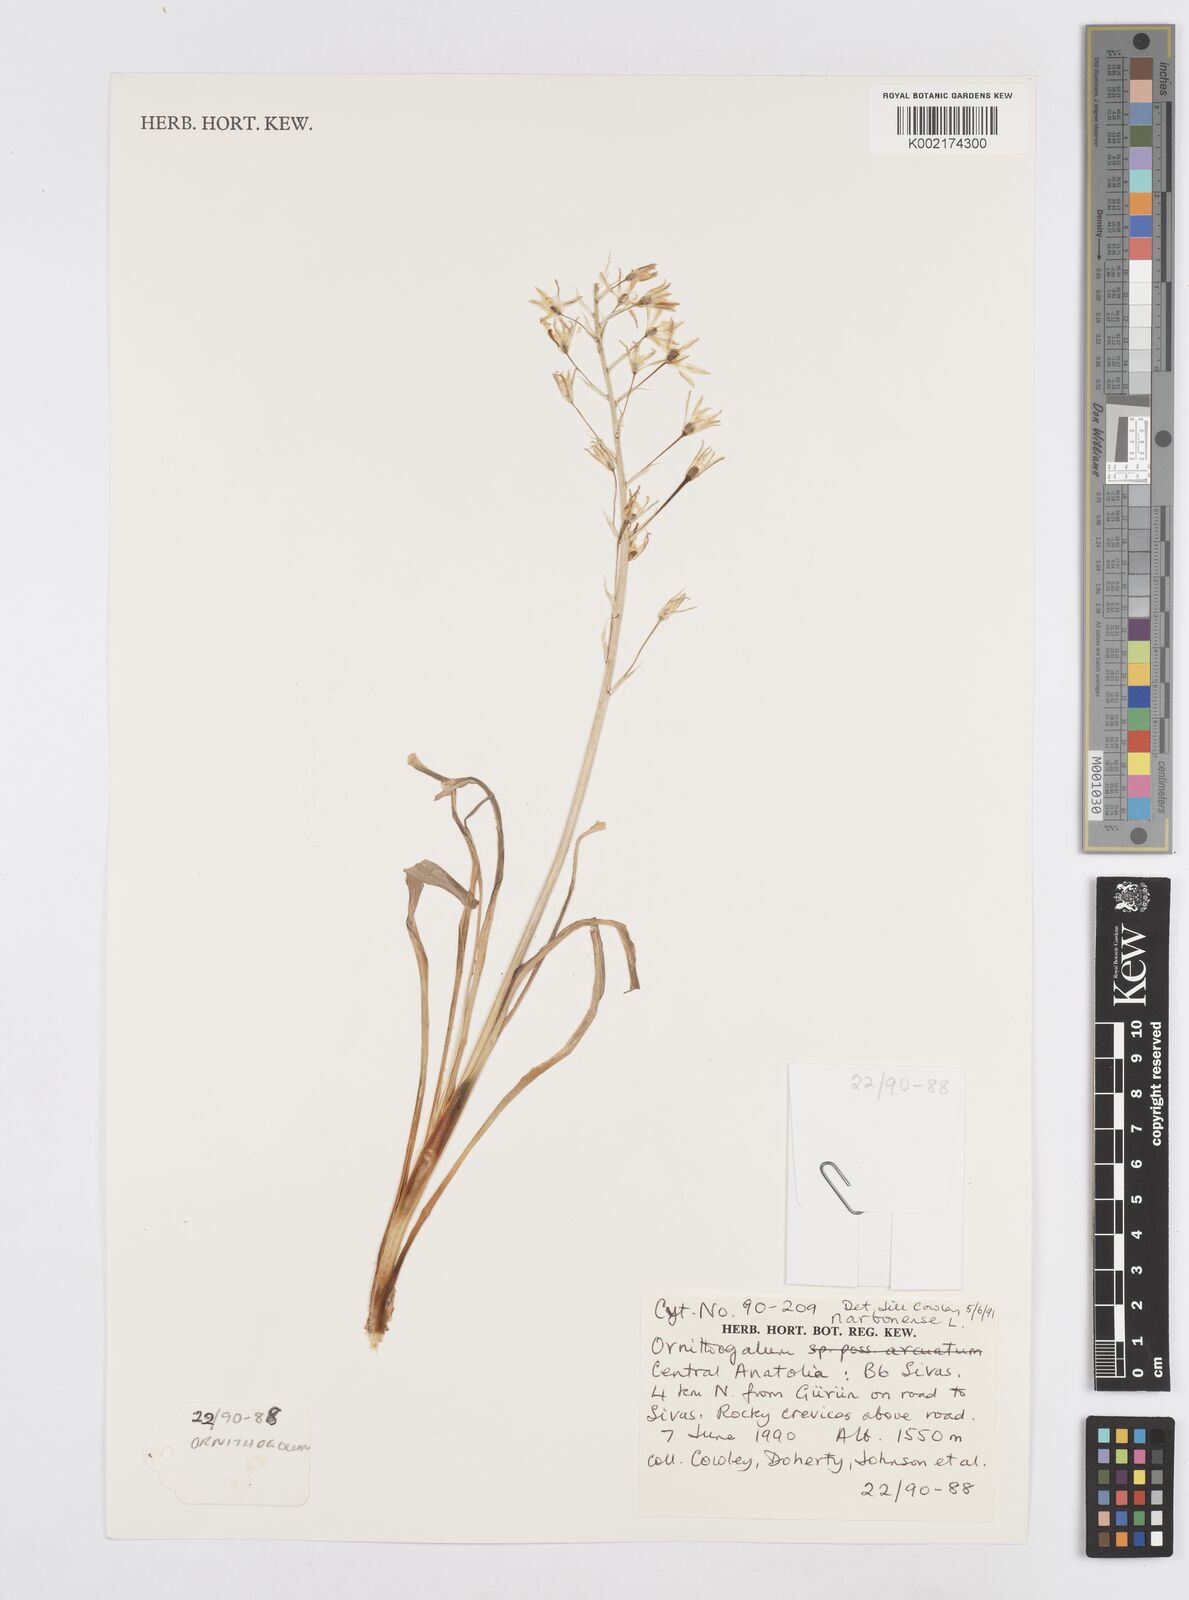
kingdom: Plantae
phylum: Tracheophyta
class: Liliopsida
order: Asparagales
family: Asparagaceae
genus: Ornithogalum
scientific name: Ornithogalum narbonense
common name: Bath-asparagus
